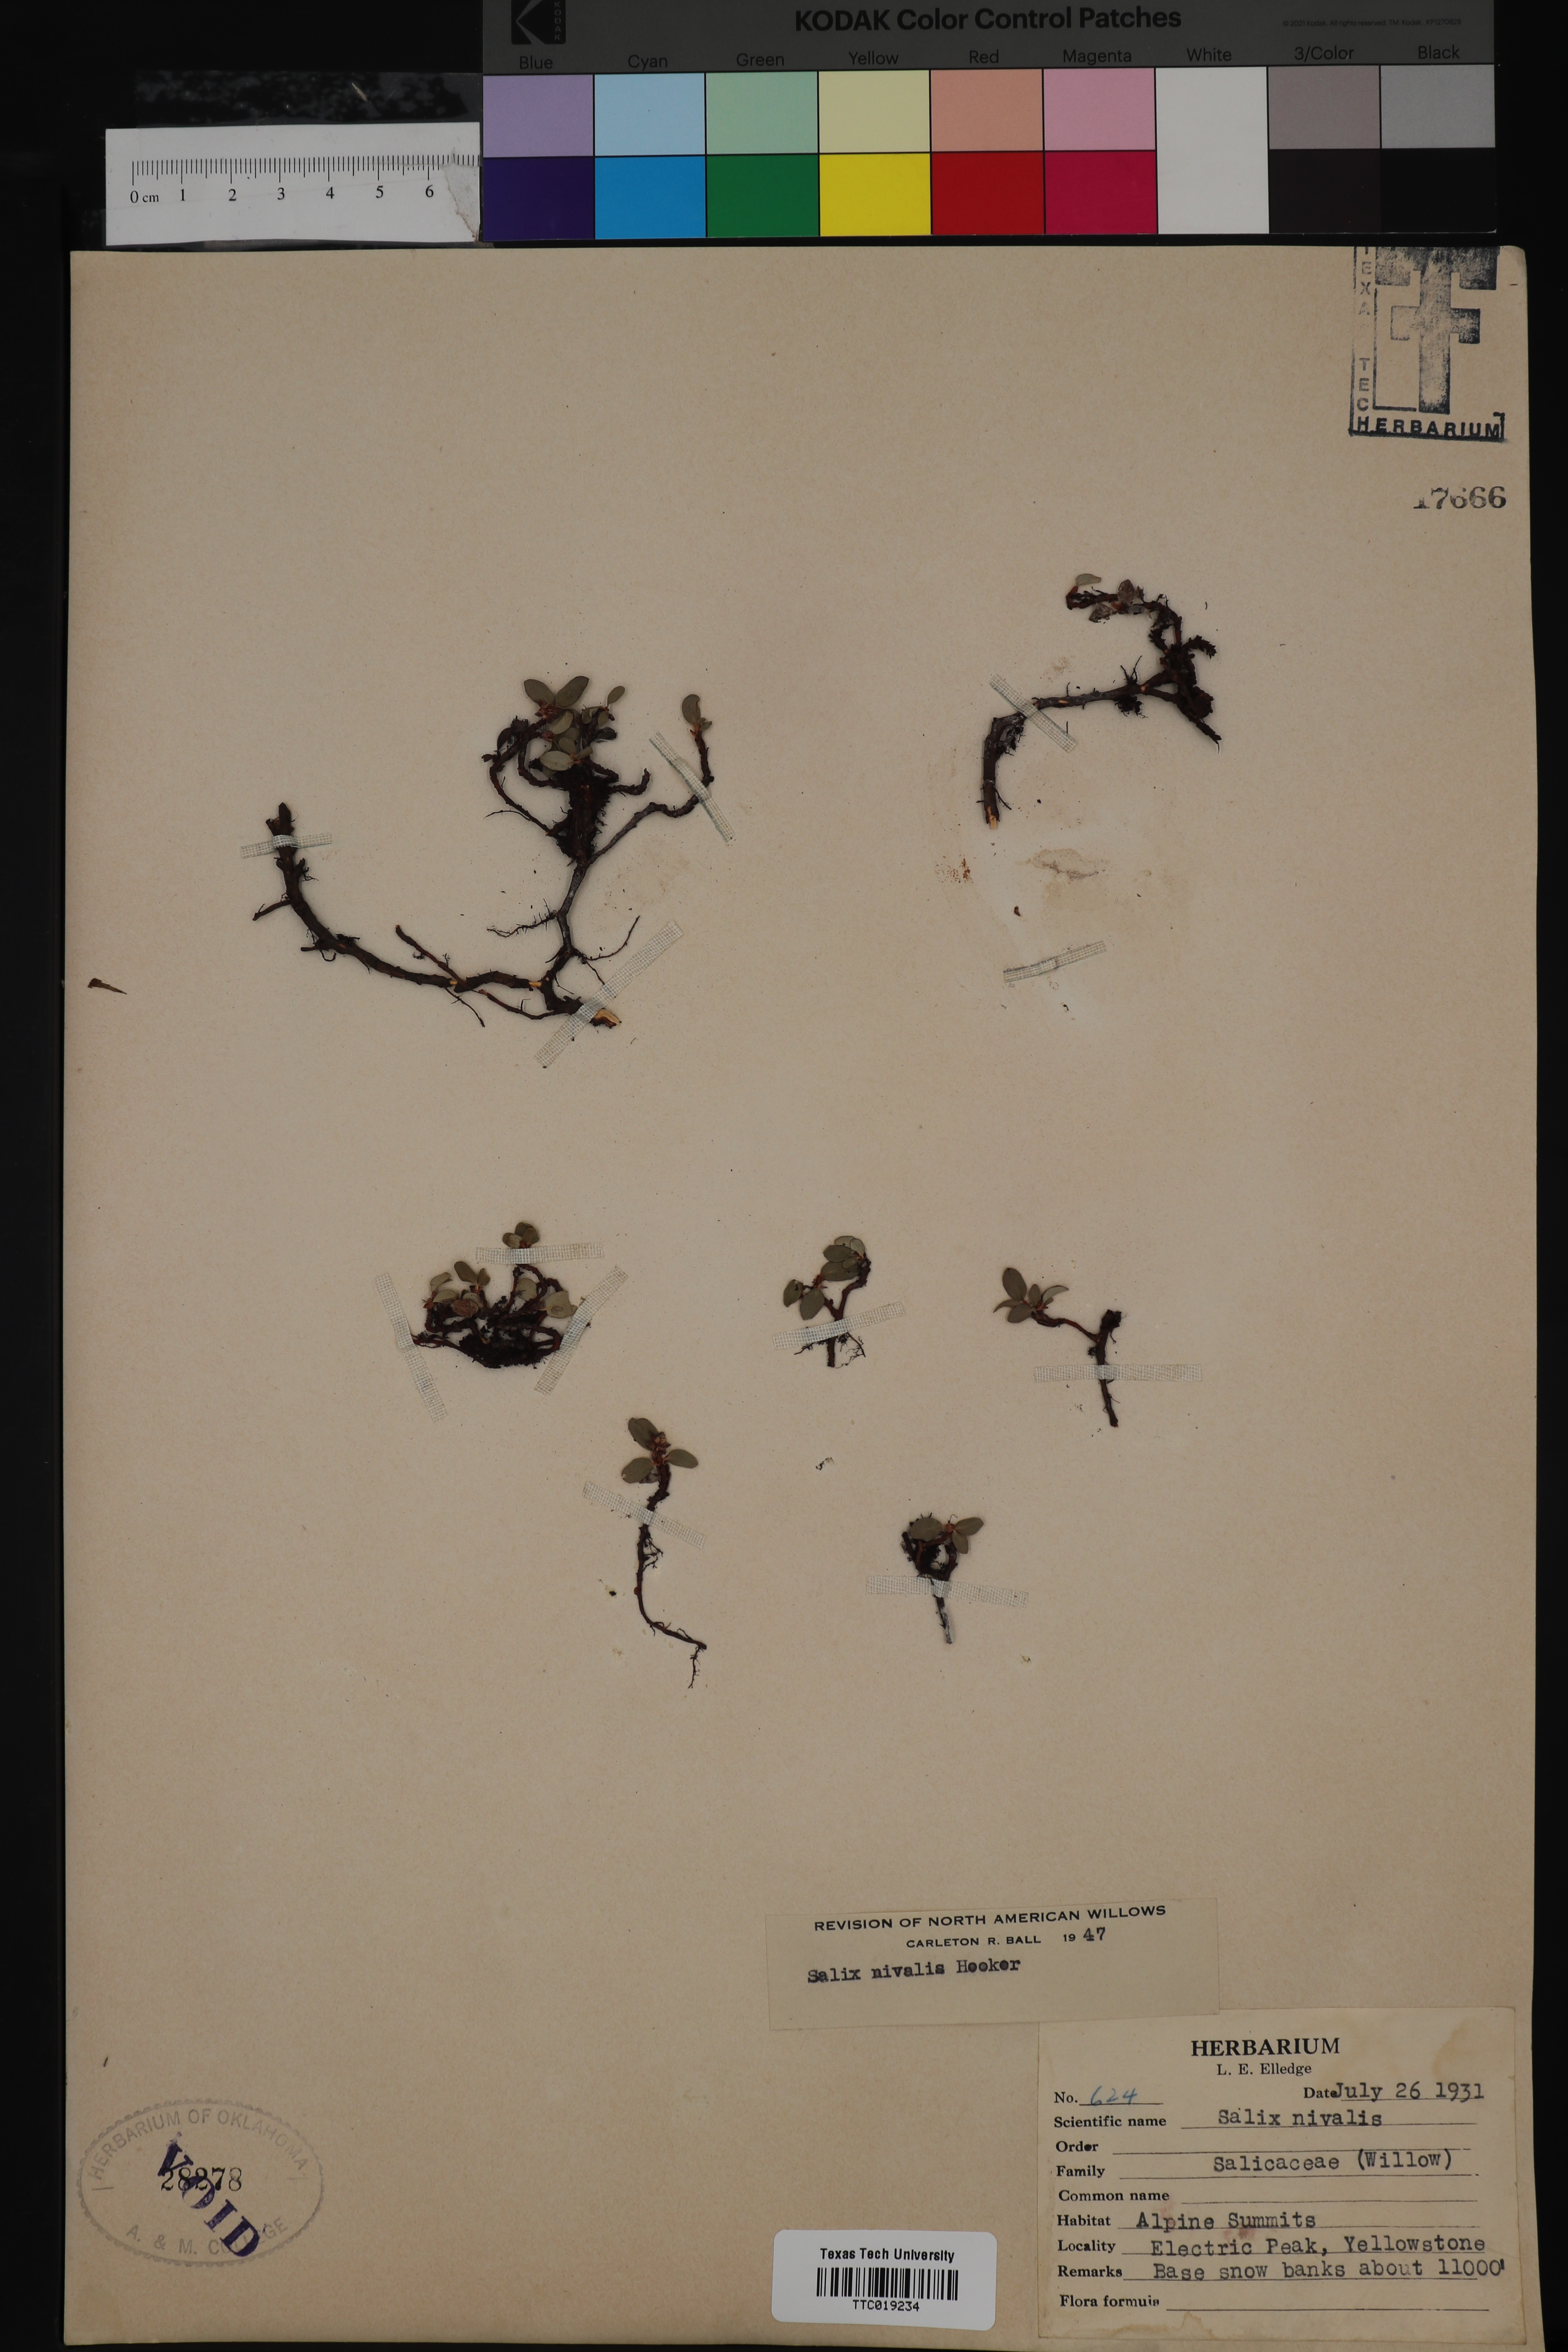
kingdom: Plantae
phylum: Tracheophyta
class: Magnoliopsida
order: Malpighiales
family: Salicaceae
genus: Salix
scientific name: Salix nivalis
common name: Dwarf snow willow
